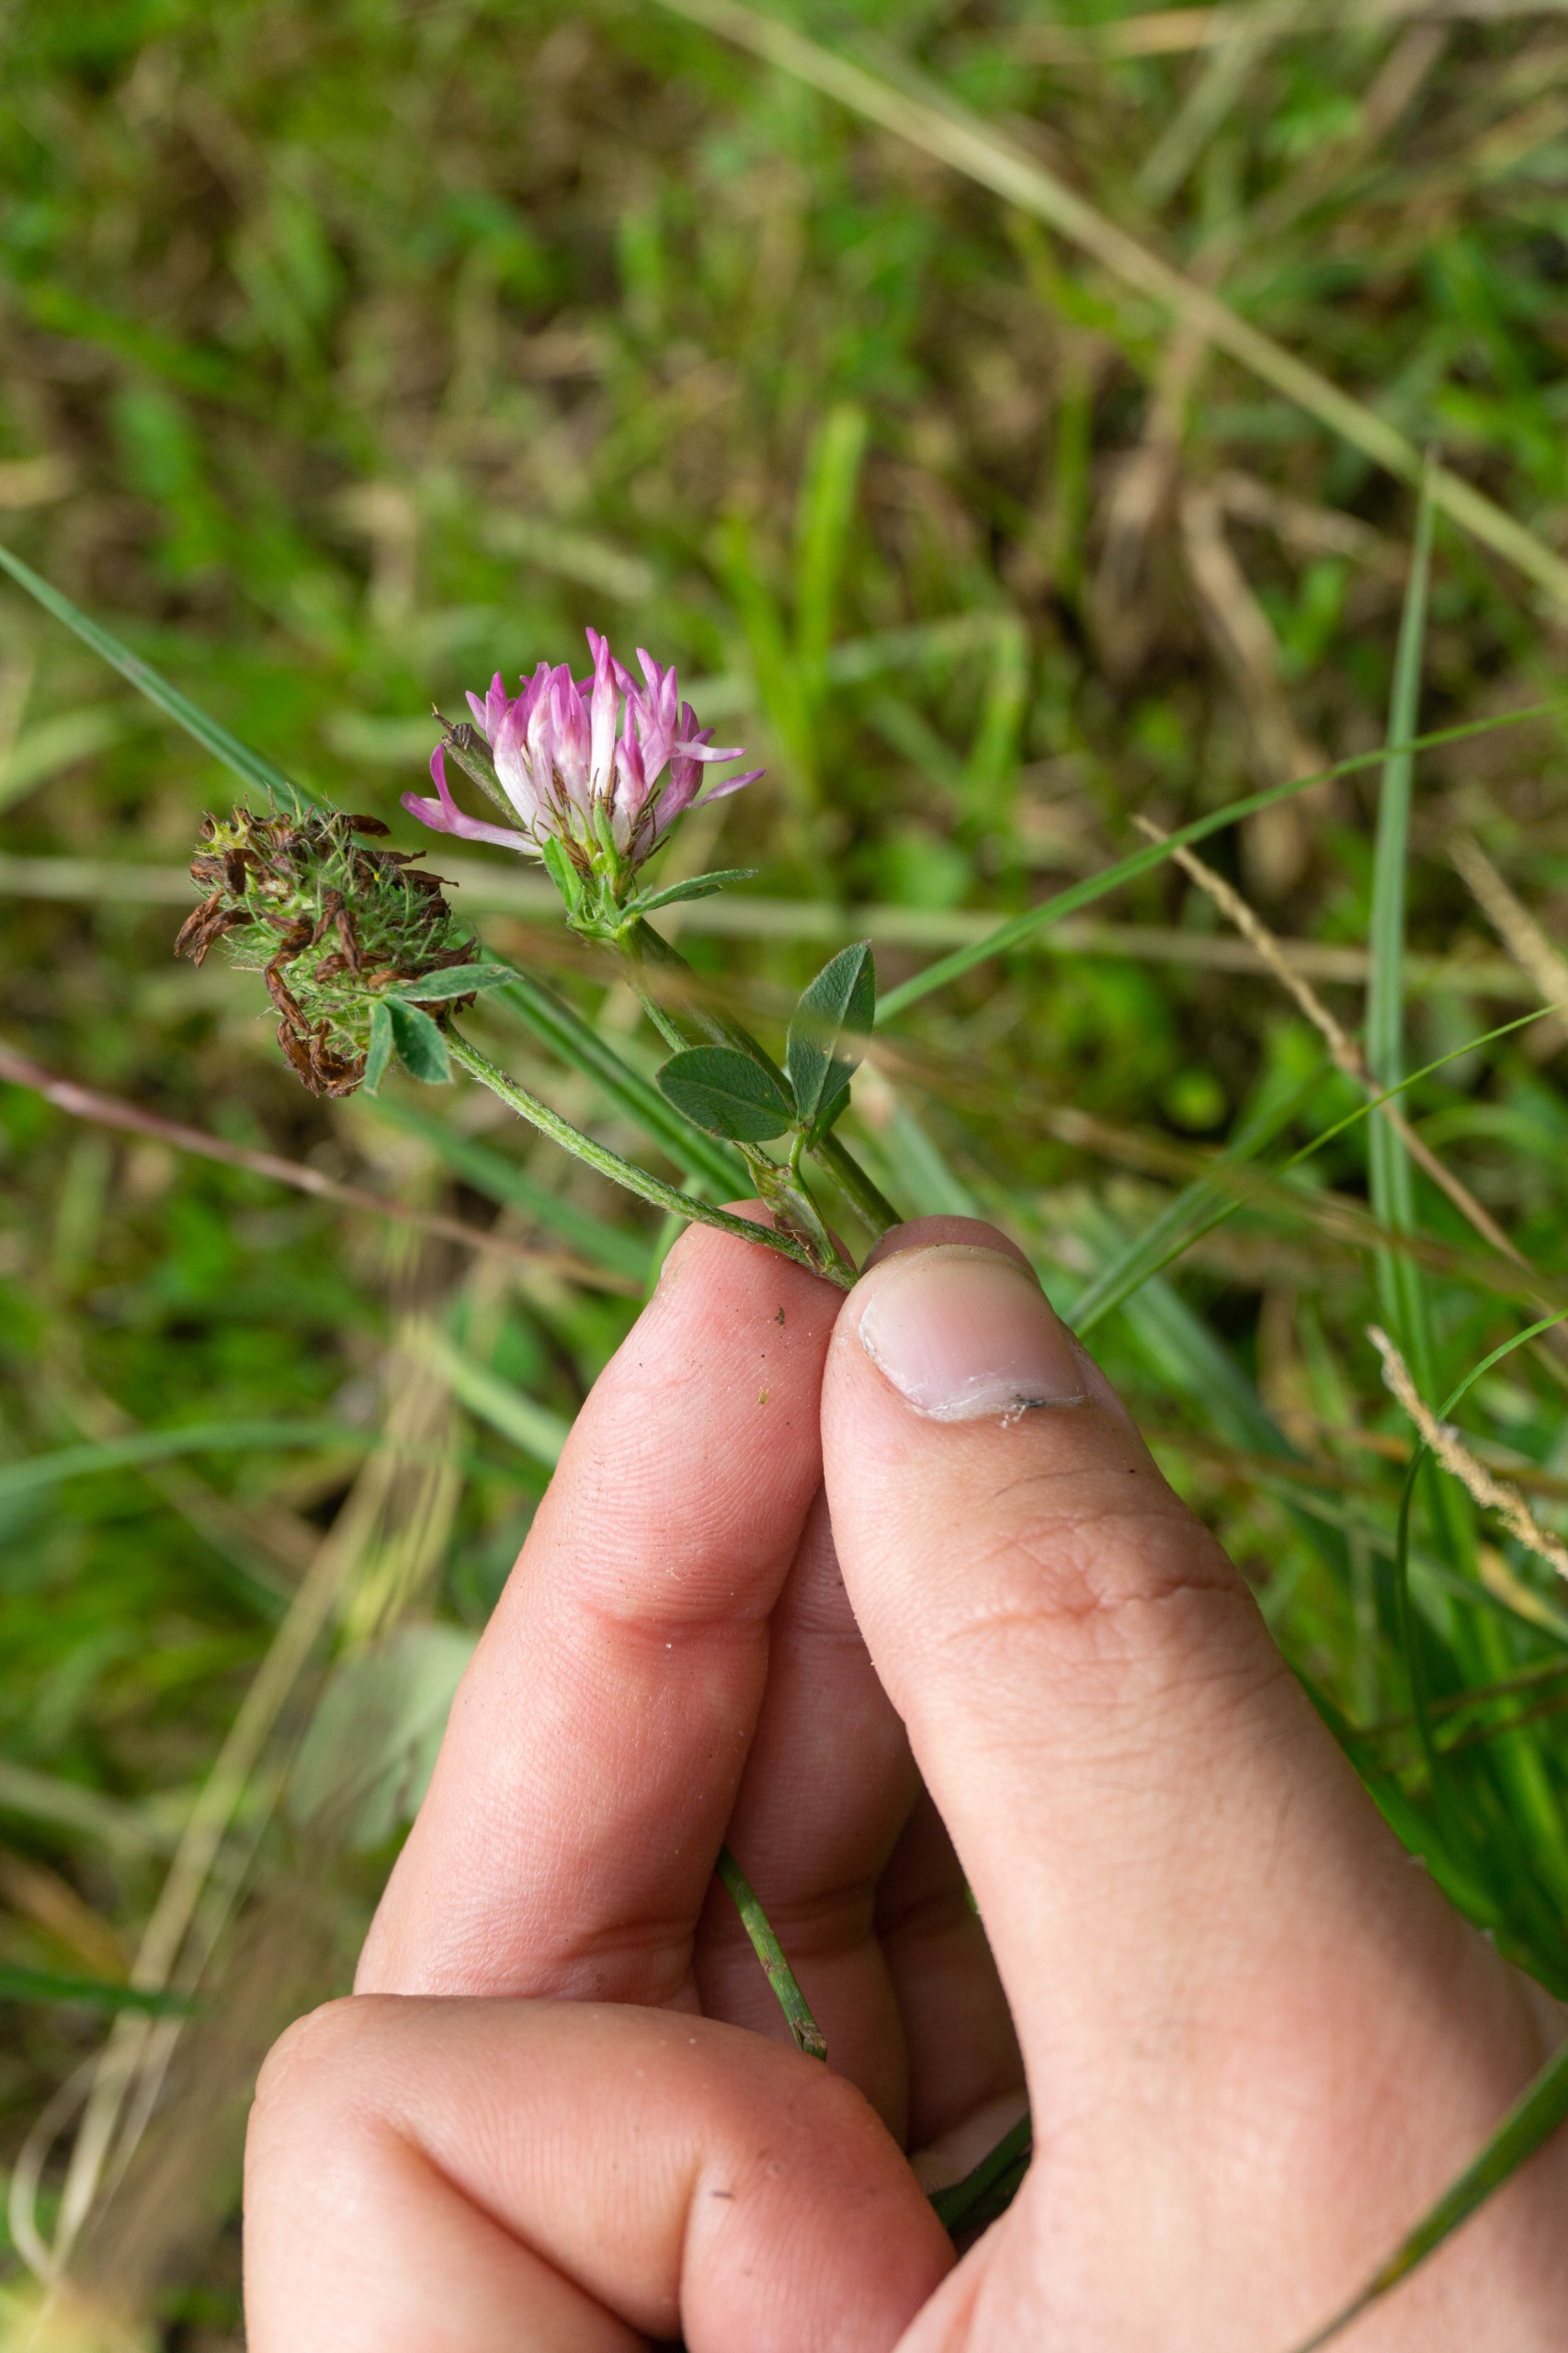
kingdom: Plantae
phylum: Tracheophyta
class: Magnoliopsida
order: Fabales
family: Fabaceae
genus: Trifolium
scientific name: Trifolium pratense
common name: Rød-kløver
